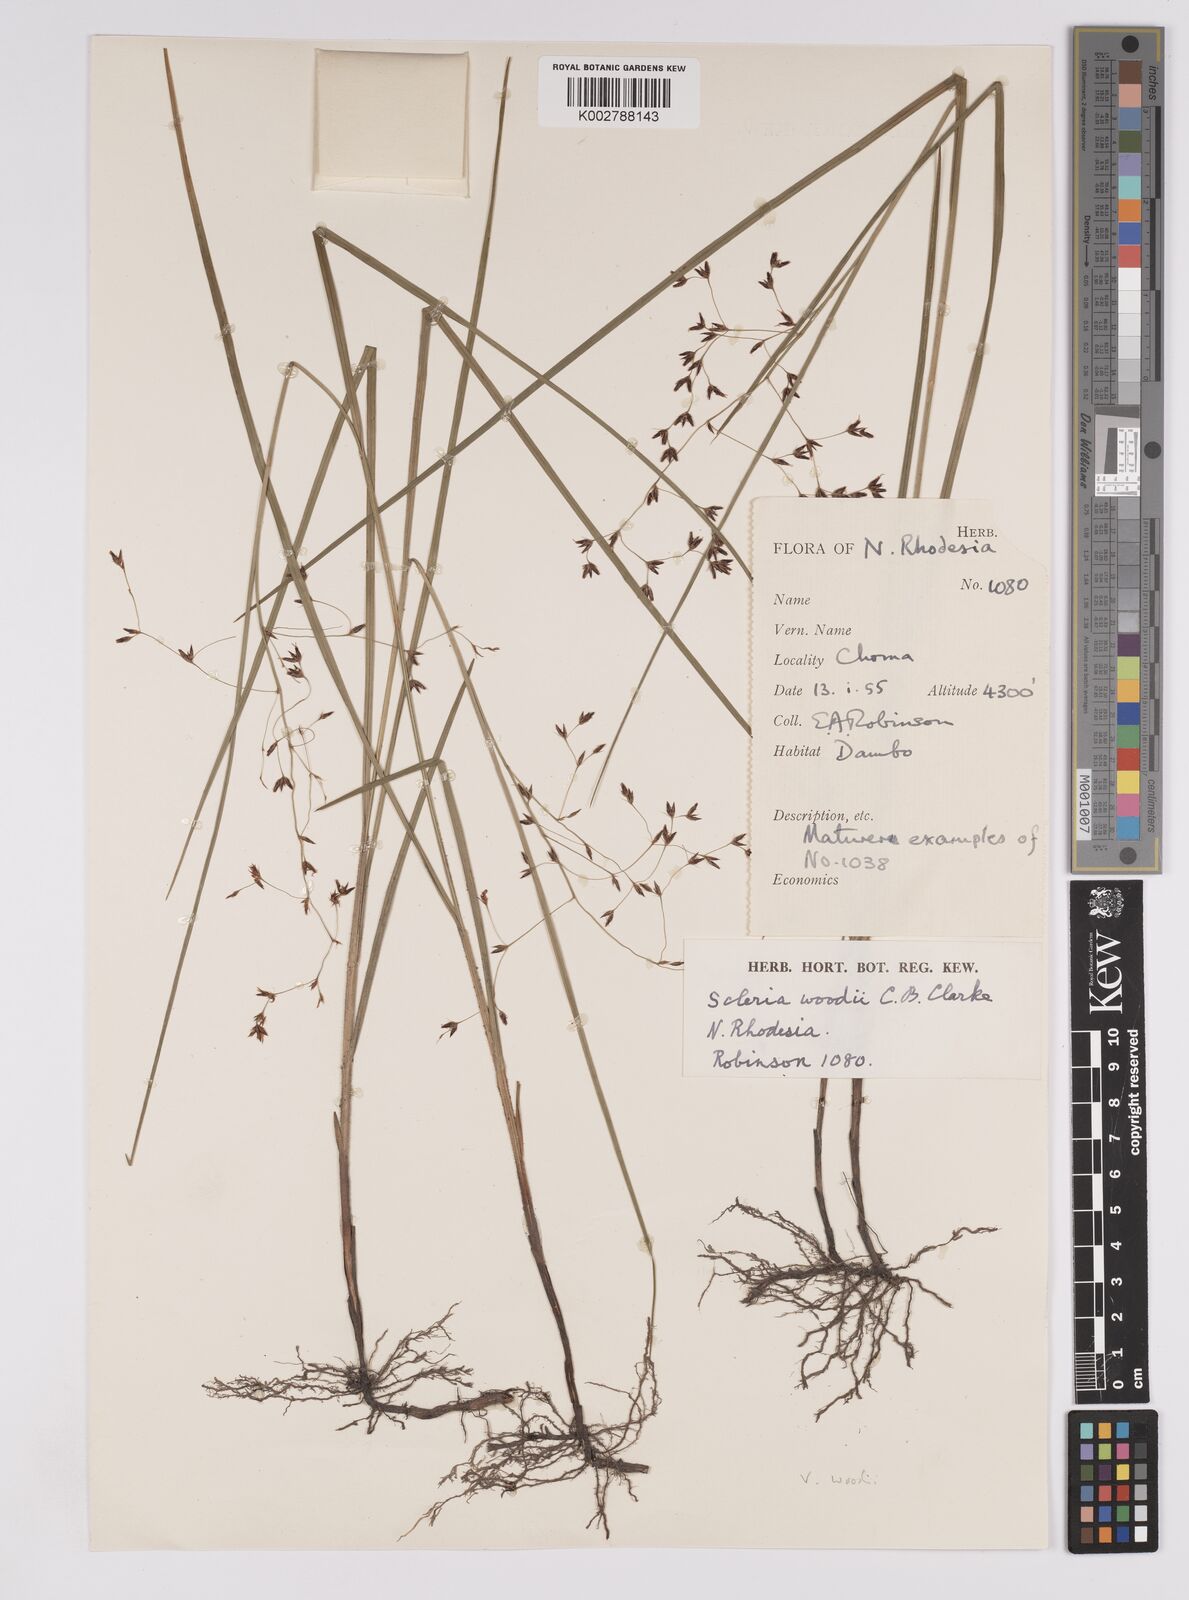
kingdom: Plantae
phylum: Tracheophyta
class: Liliopsida
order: Poales
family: Cyperaceae
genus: Scleria
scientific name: Scleria woodii
